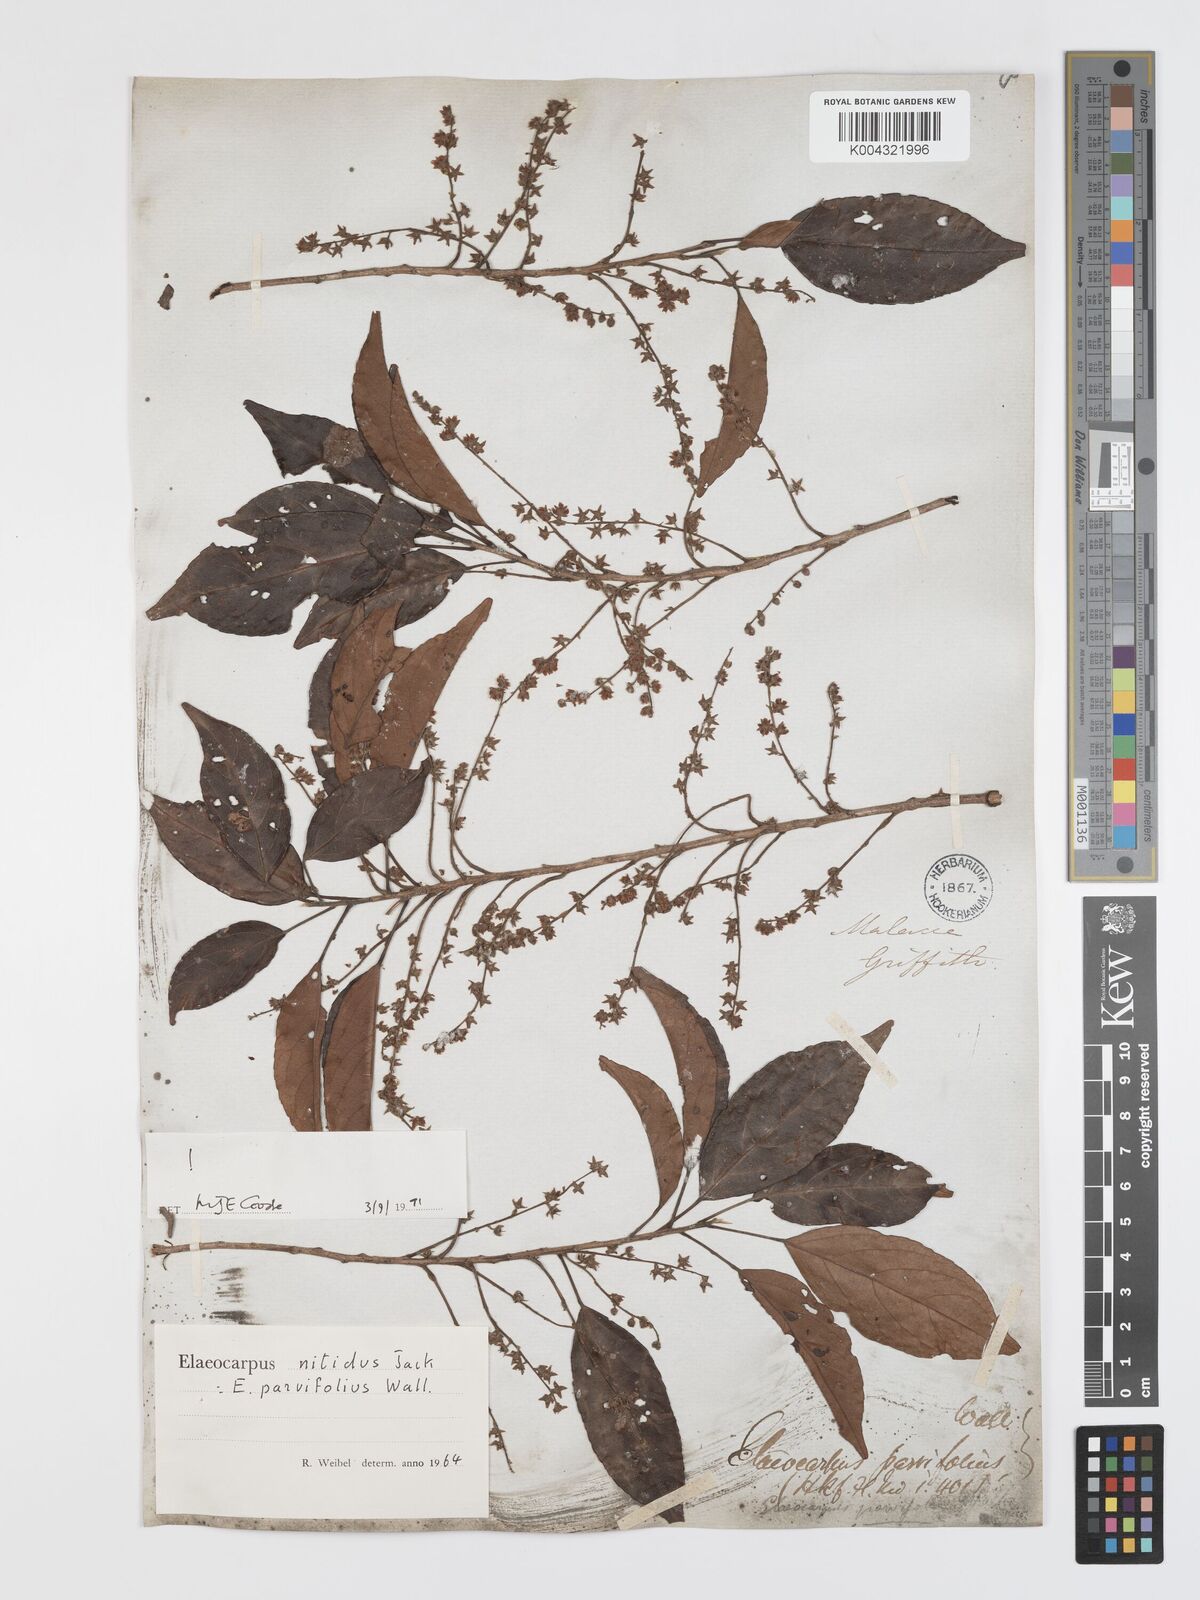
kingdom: Plantae
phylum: Tracheophyta
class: Magnoliopsida
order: Oxalidales
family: Elaeocarpaceae
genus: Elaeocarpus
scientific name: Elaeocarpus nitidus
